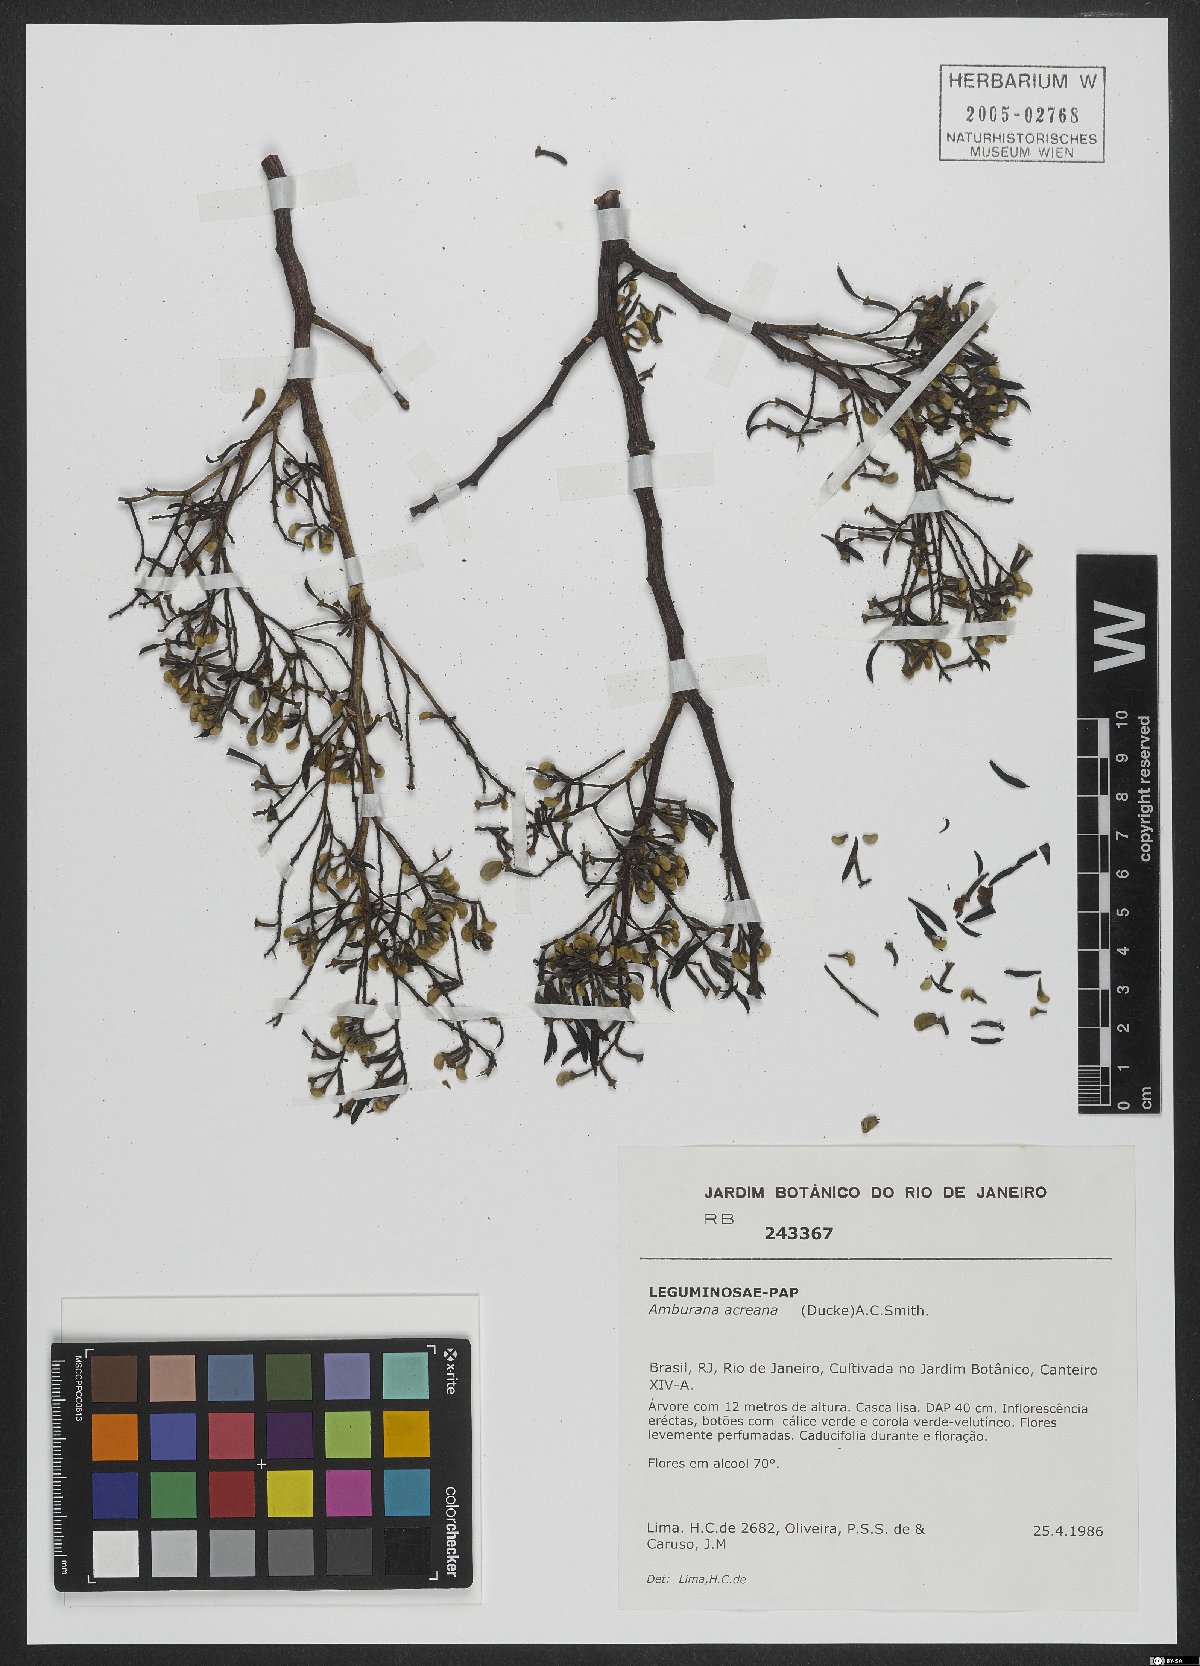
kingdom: Plantae
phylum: Tracheophyta
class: Magnoliopsida
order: Fabales
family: Fabaceae
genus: Amburana
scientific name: Amburana acreana
